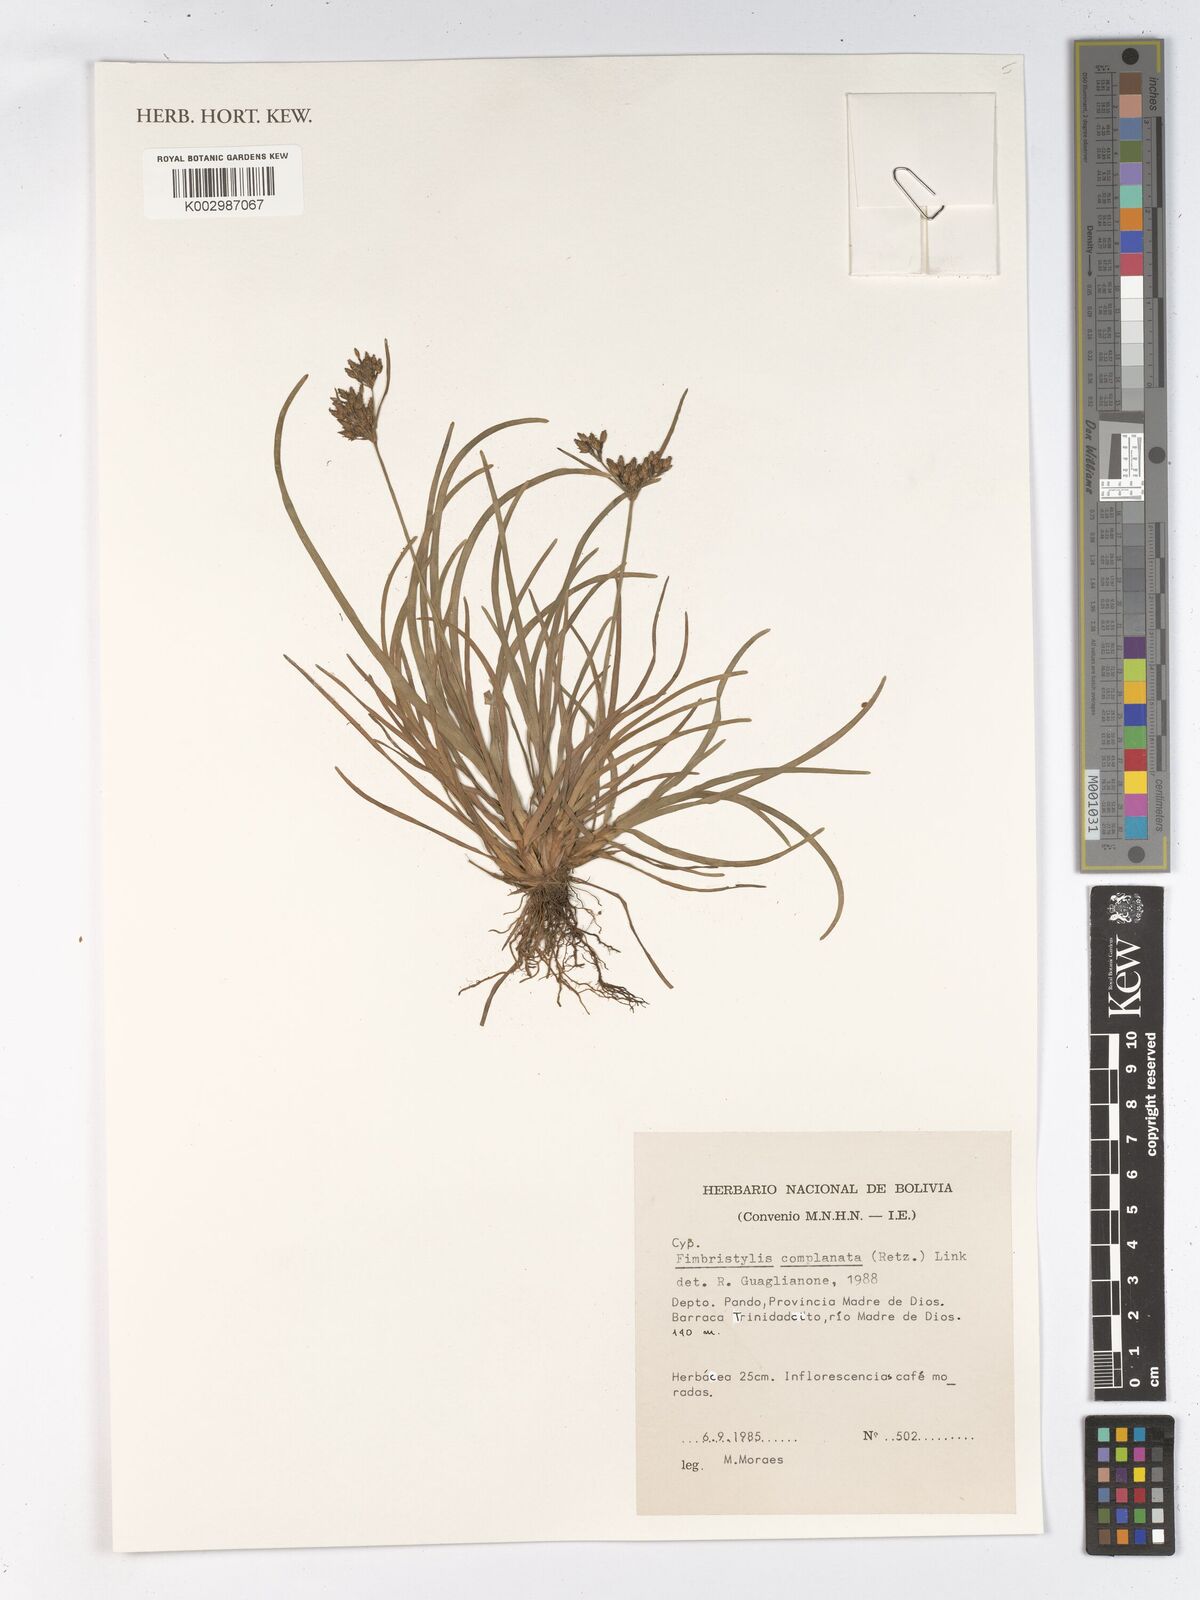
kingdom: Plantae
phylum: Tracheophyta
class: Liliopsida
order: Poales
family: Cyperaceae
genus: Fimbristylis
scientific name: Fimbristylis complanata
